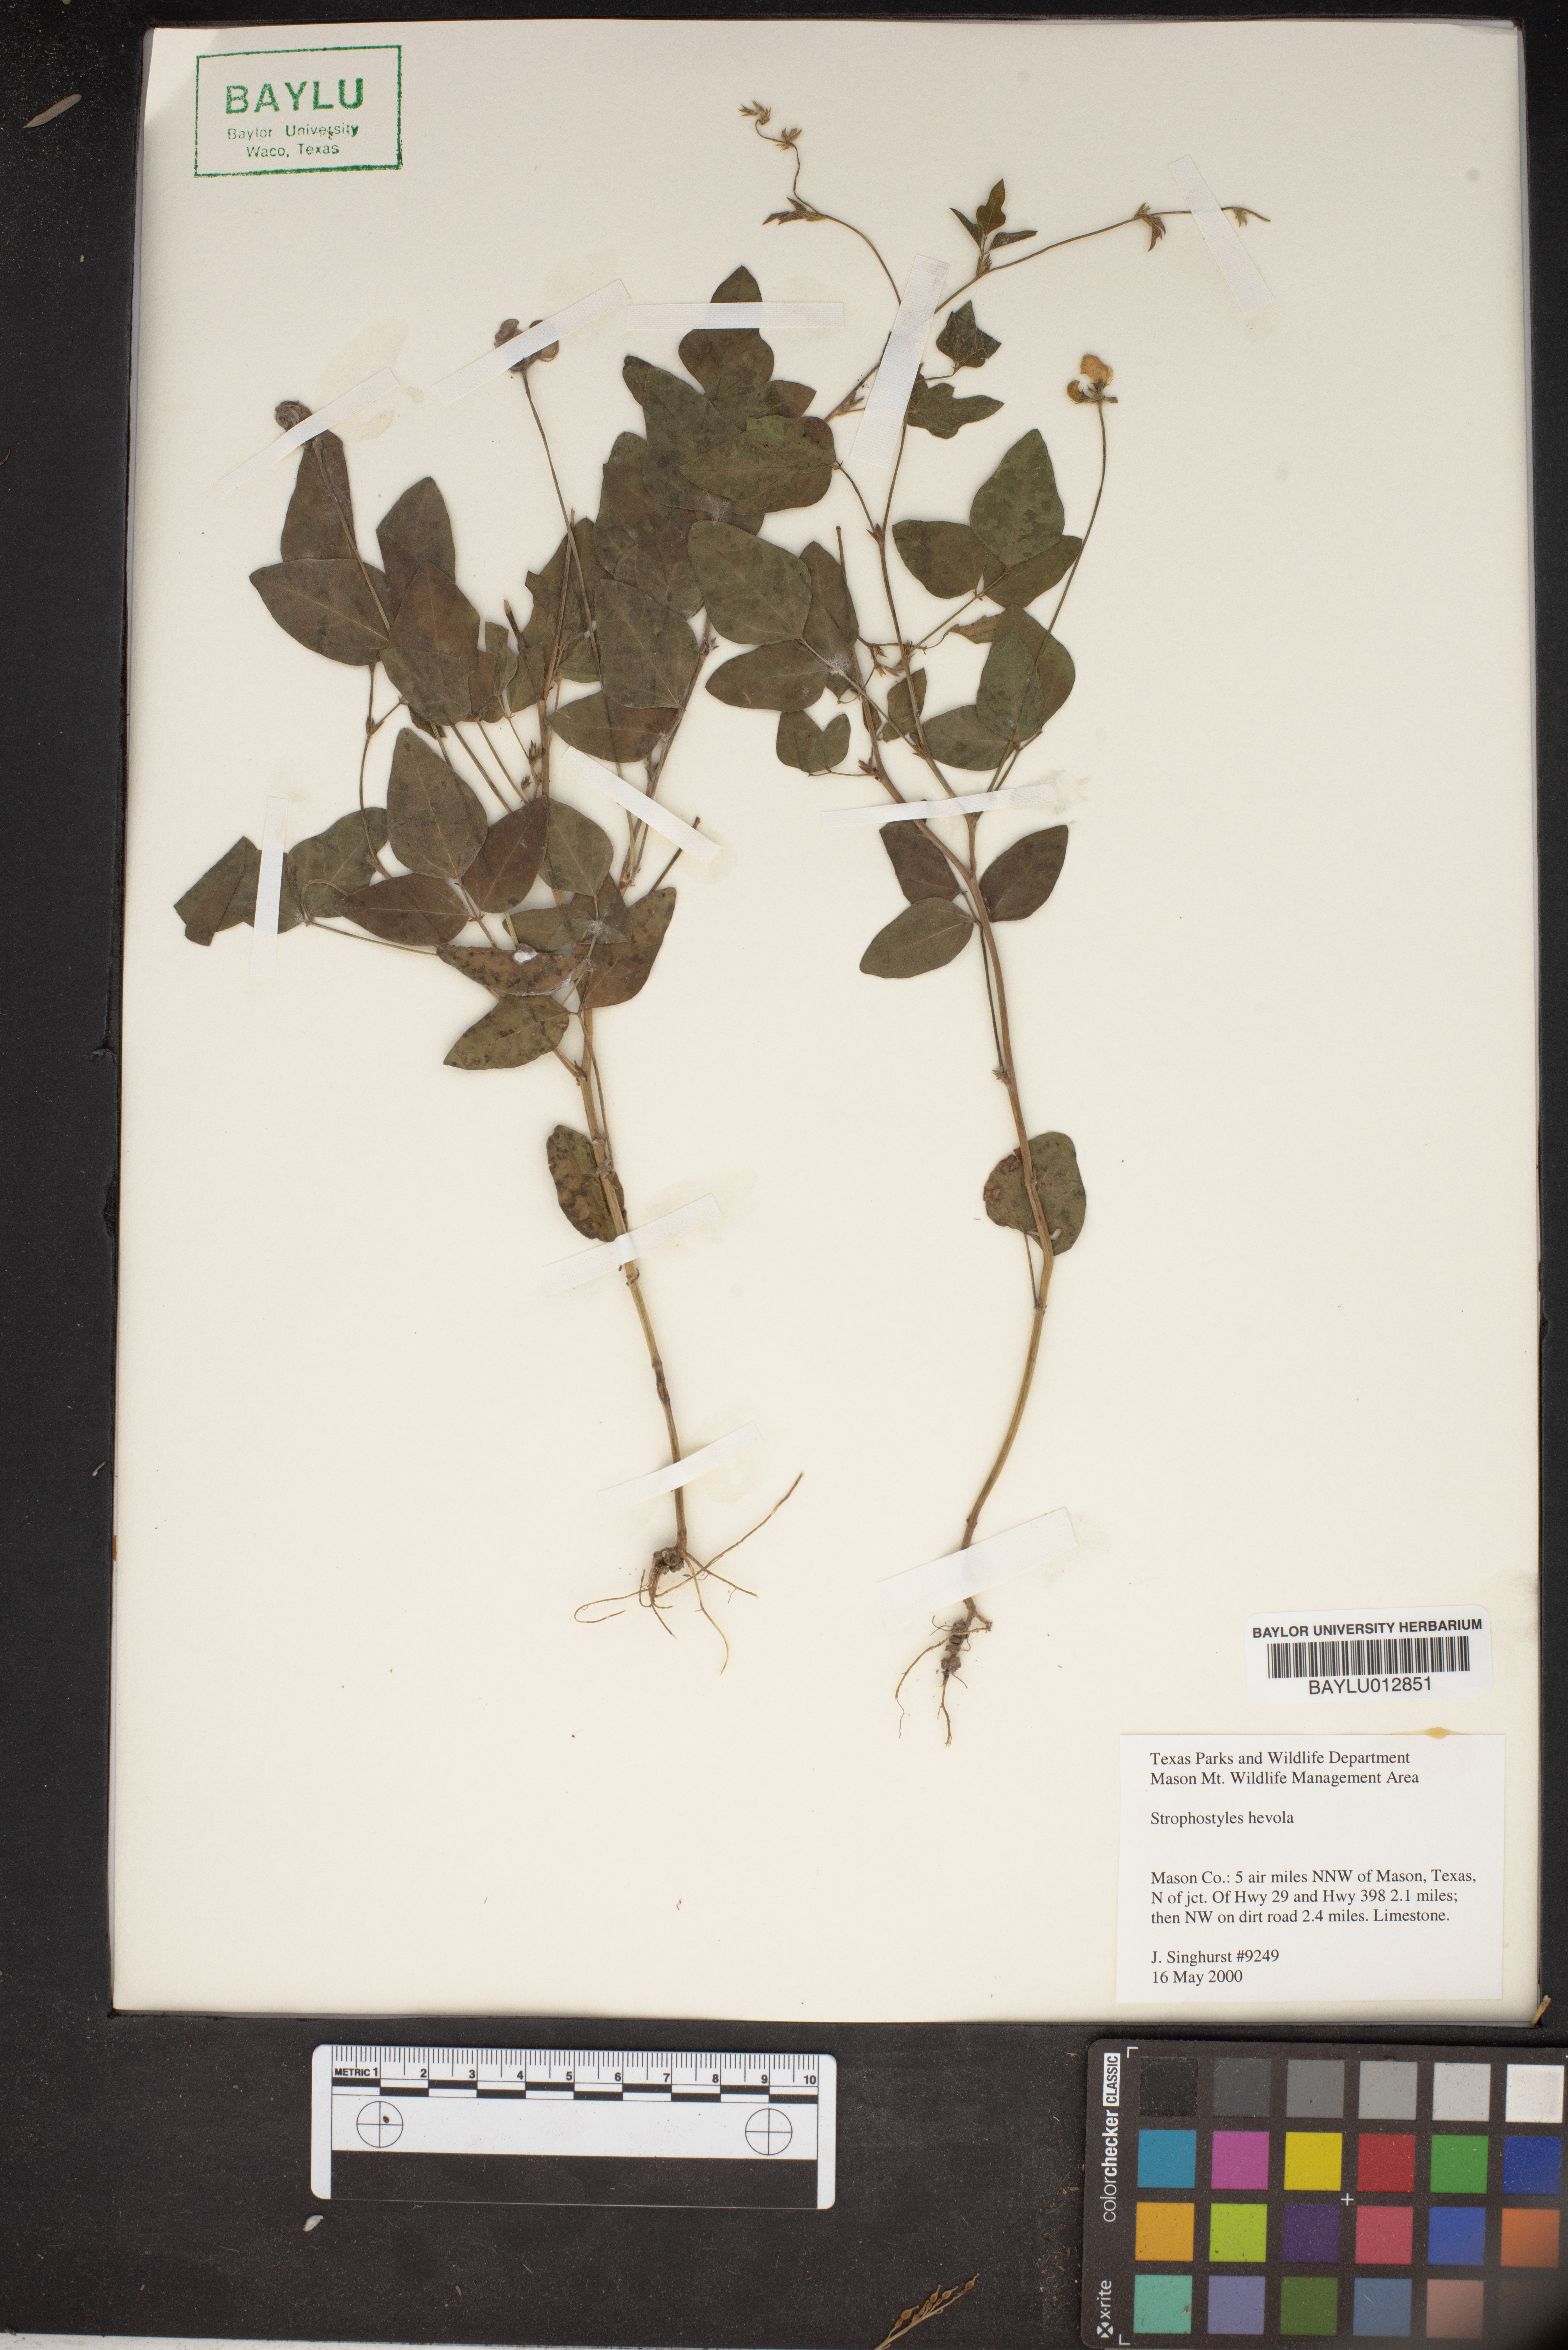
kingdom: Plantae
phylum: Tracheophyta
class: Magnoliopsida
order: Fabales
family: Fabaceae
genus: Strophostyles
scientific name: Strophostyles helvola
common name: Trailing wild bean
